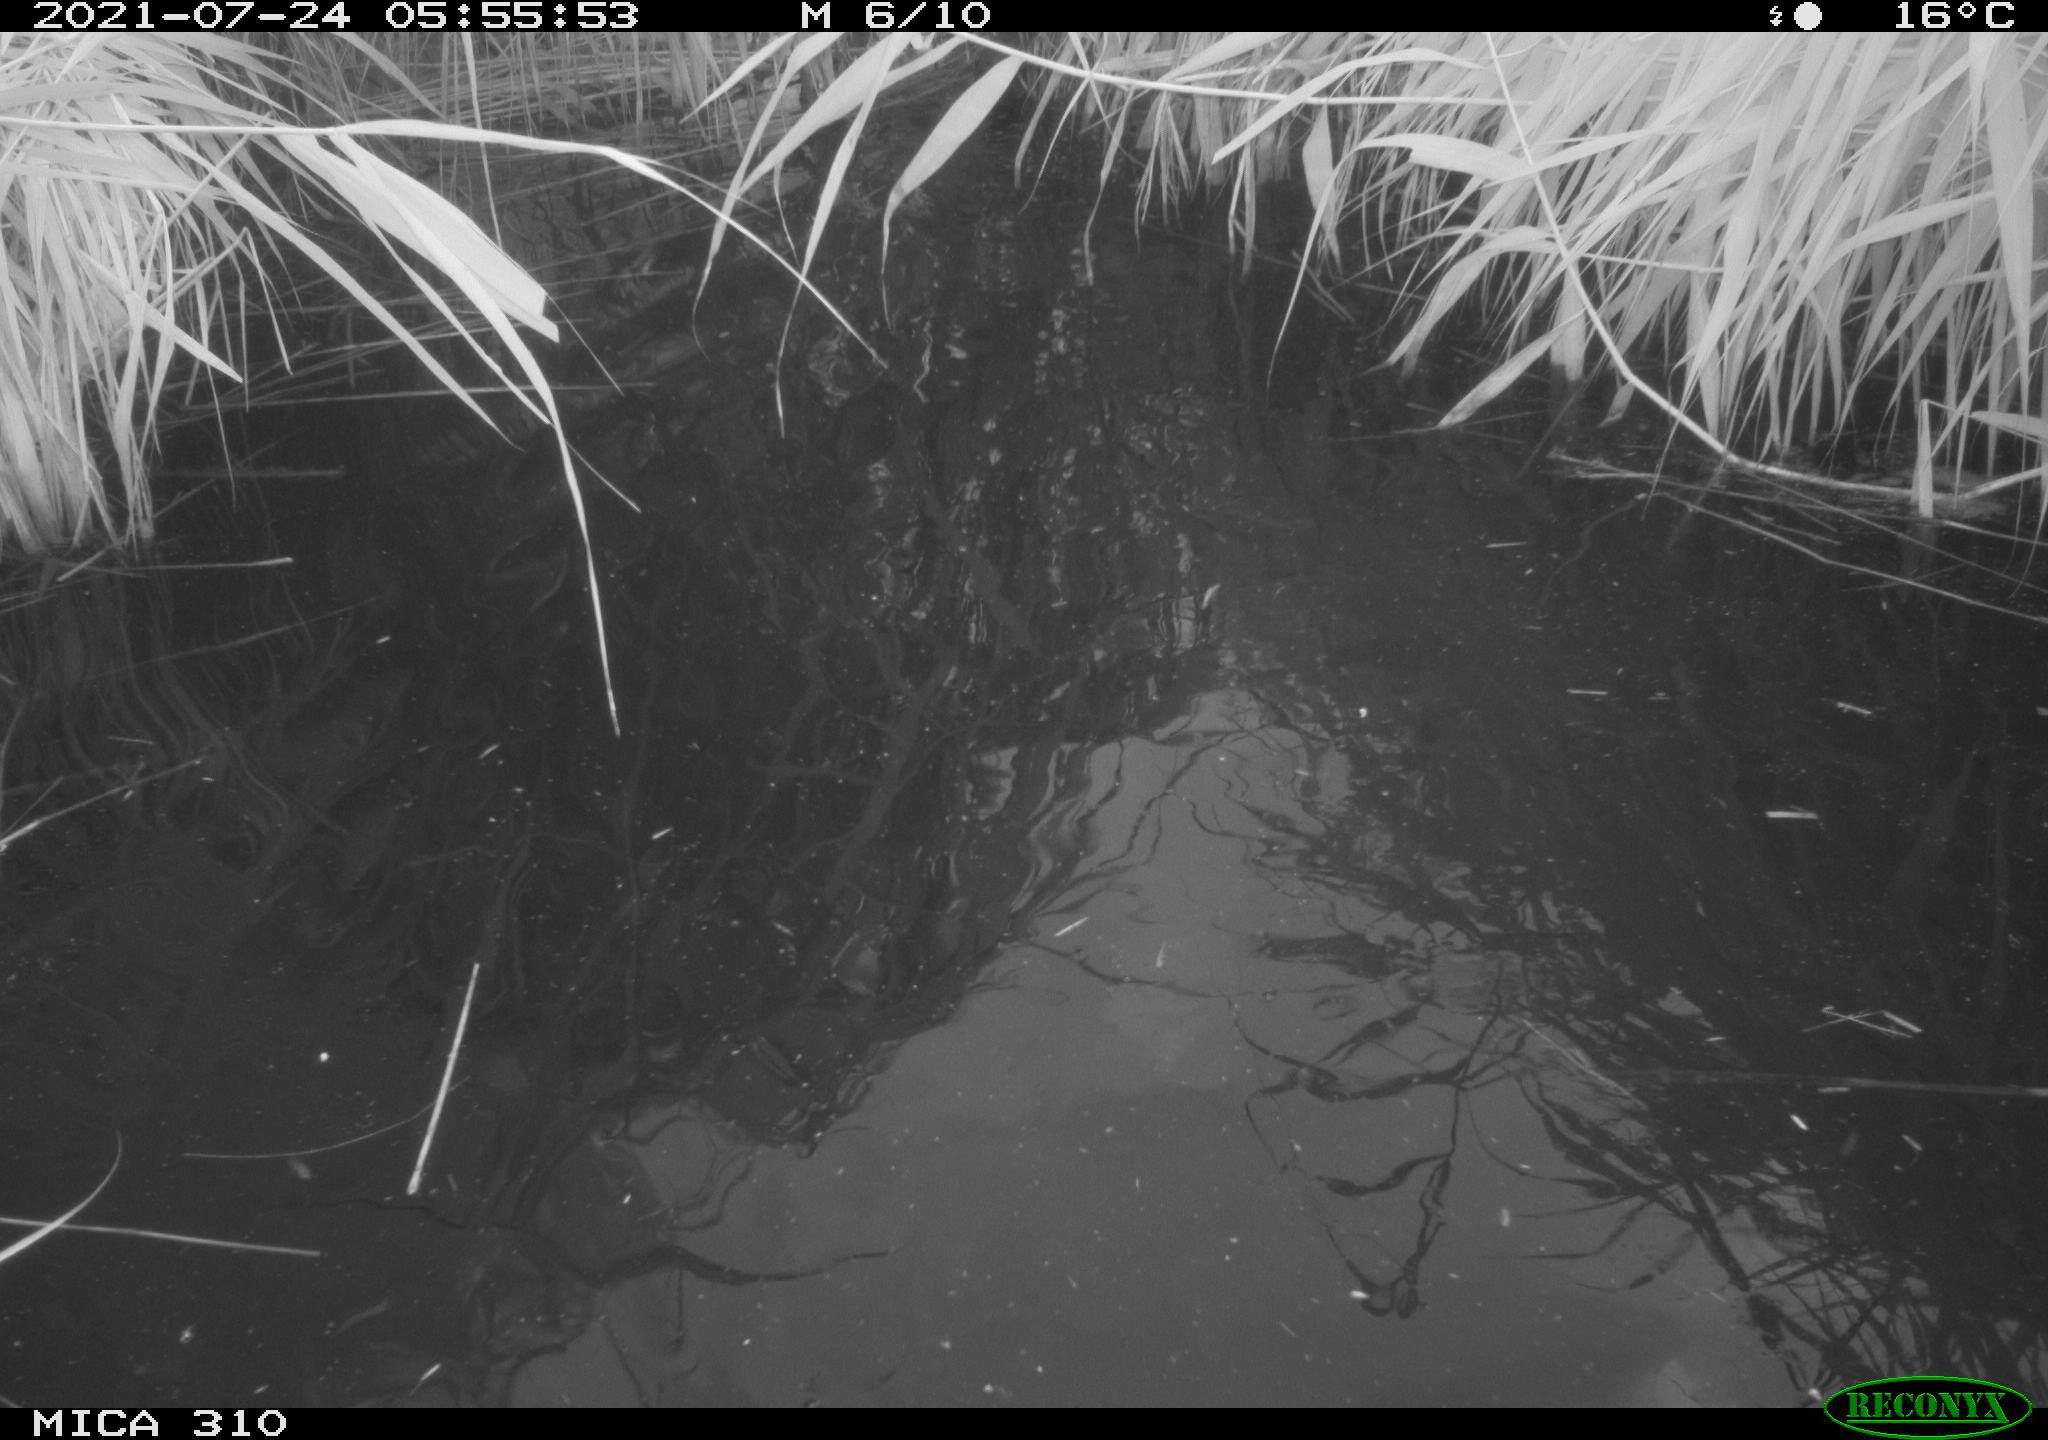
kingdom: Animalia
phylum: Chordata
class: Aves
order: Gruiformes
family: Rallidae
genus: Gallinula
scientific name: Gallinula chloropus
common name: Common moorhen
